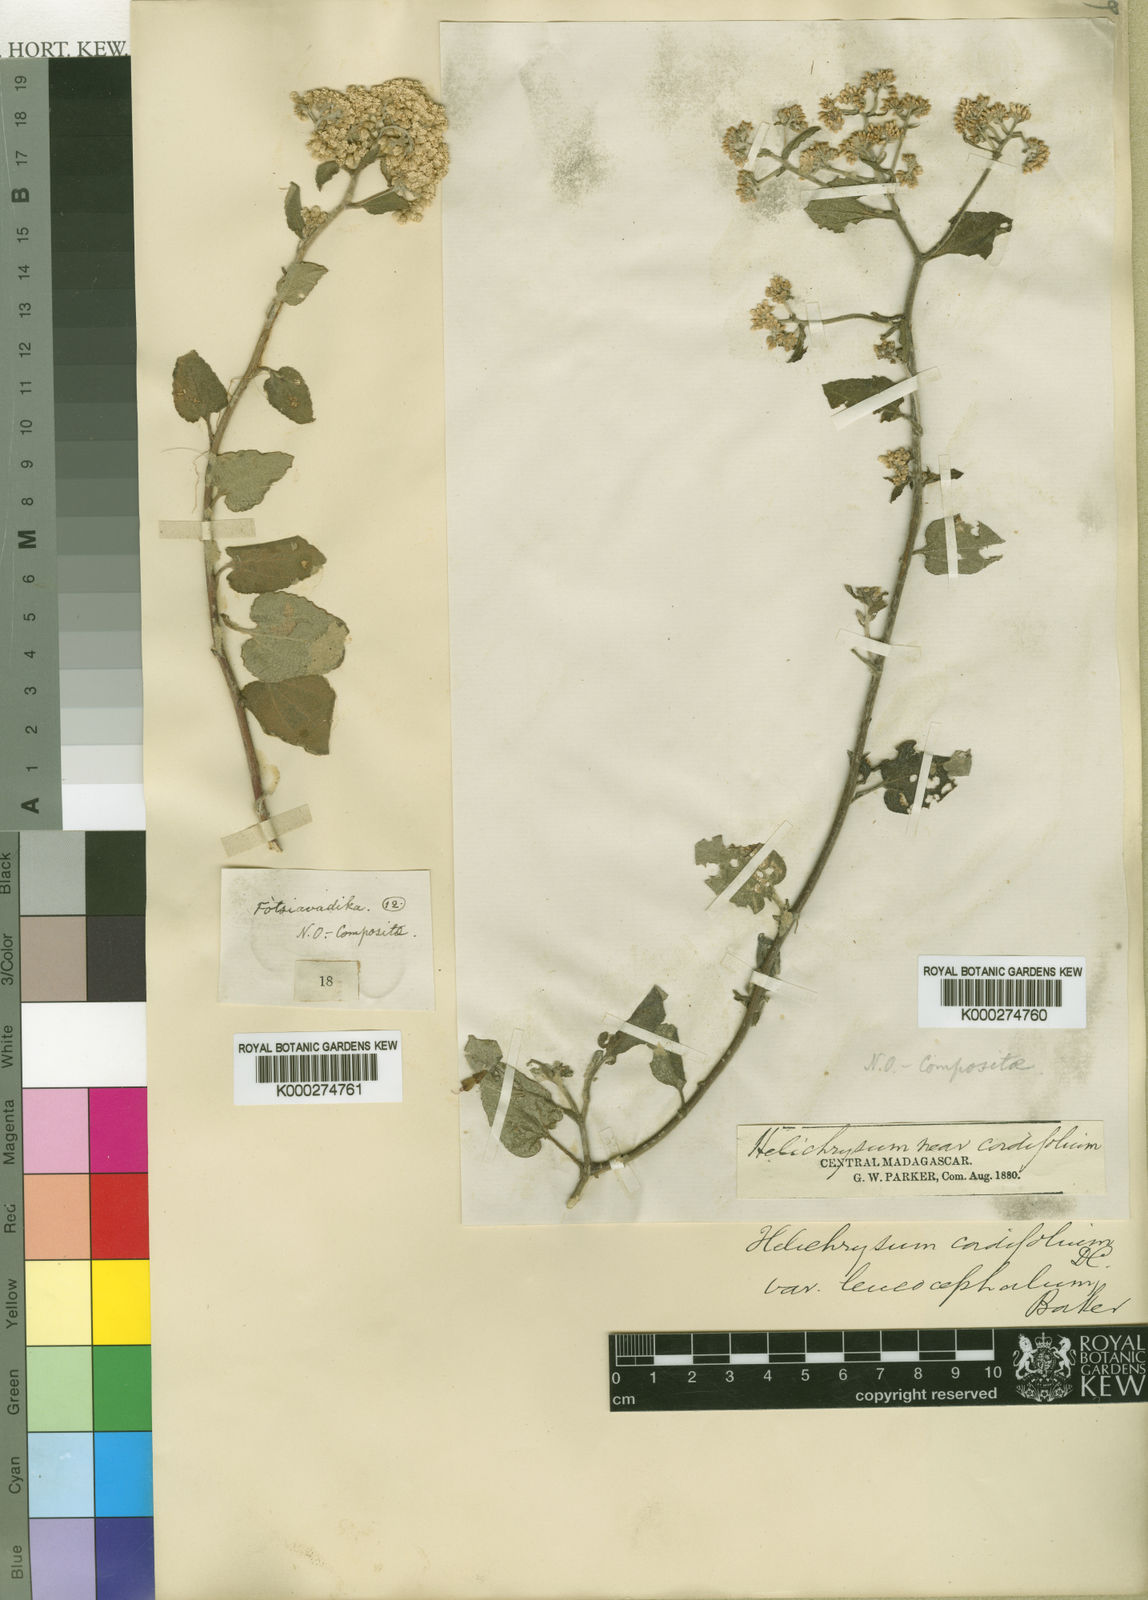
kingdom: Plantae
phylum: Tracheophyta
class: Magnoliopsida
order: Asterales
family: Asteraceae
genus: Helichrysum
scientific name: Helichrysum cordifolium
